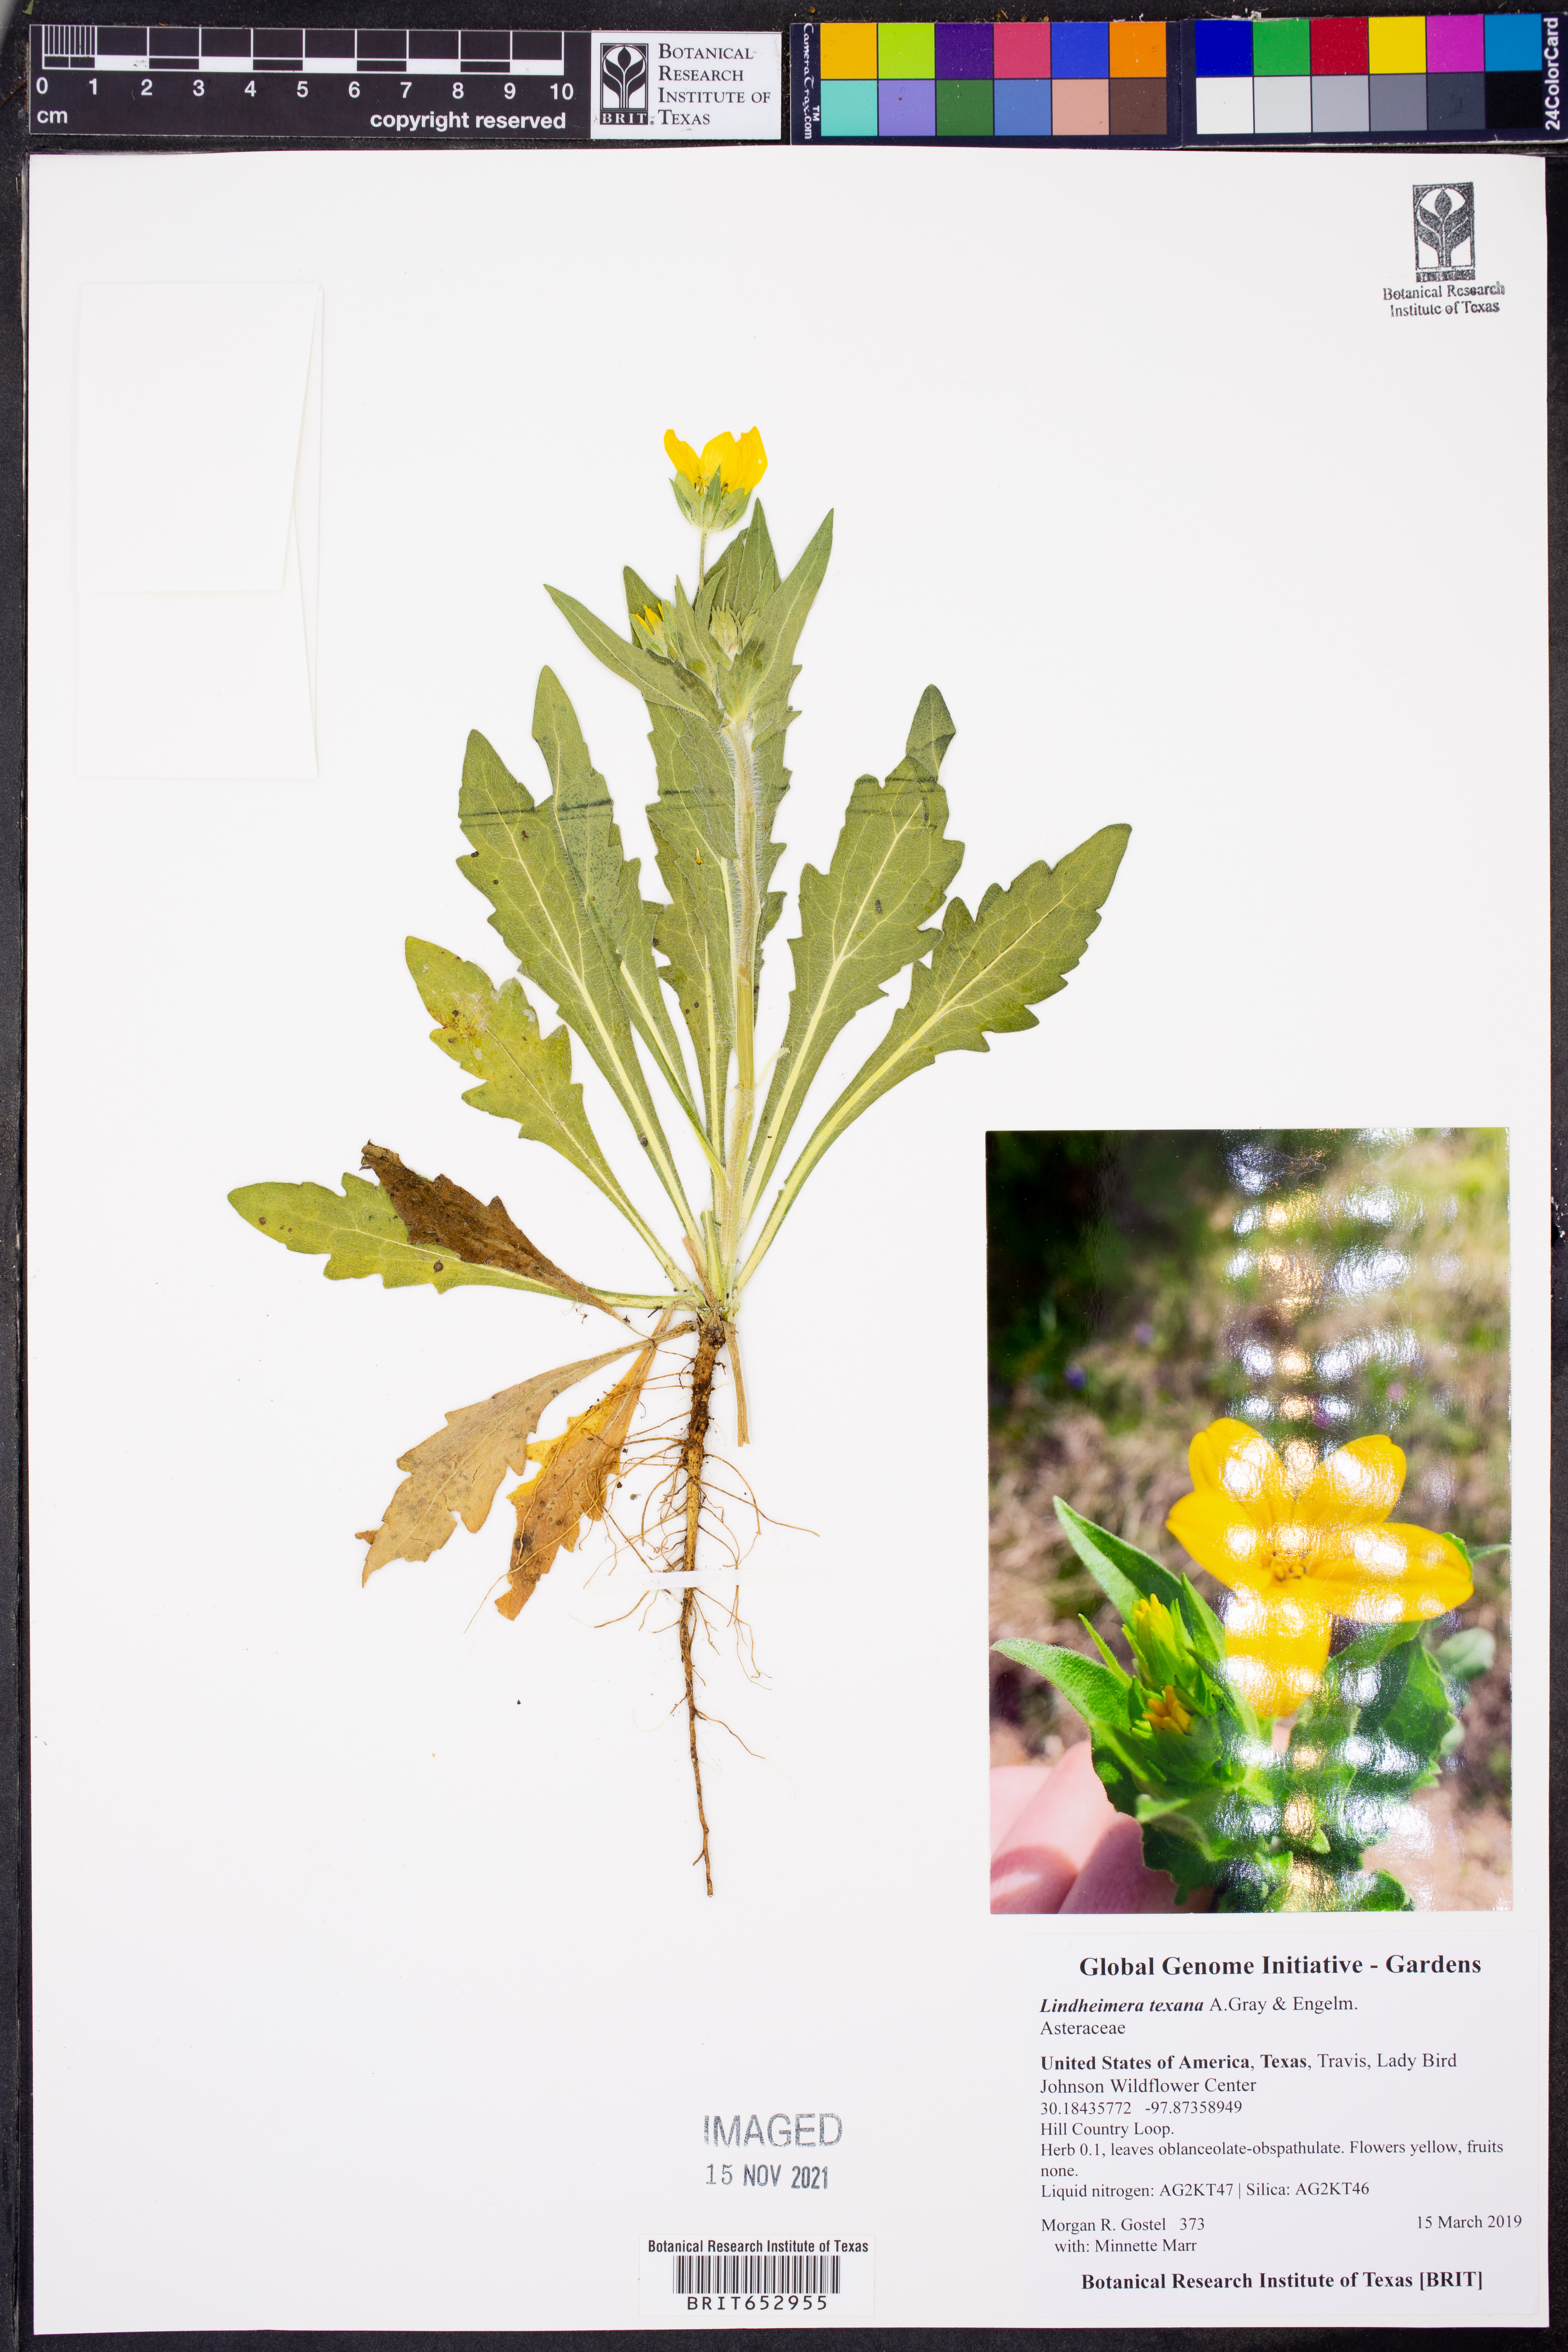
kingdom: Plantae
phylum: Tracheophyta
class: Magnoliopsida
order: Asterales
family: Asteraceae
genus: Lindheimera
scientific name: Lindheimera texana
